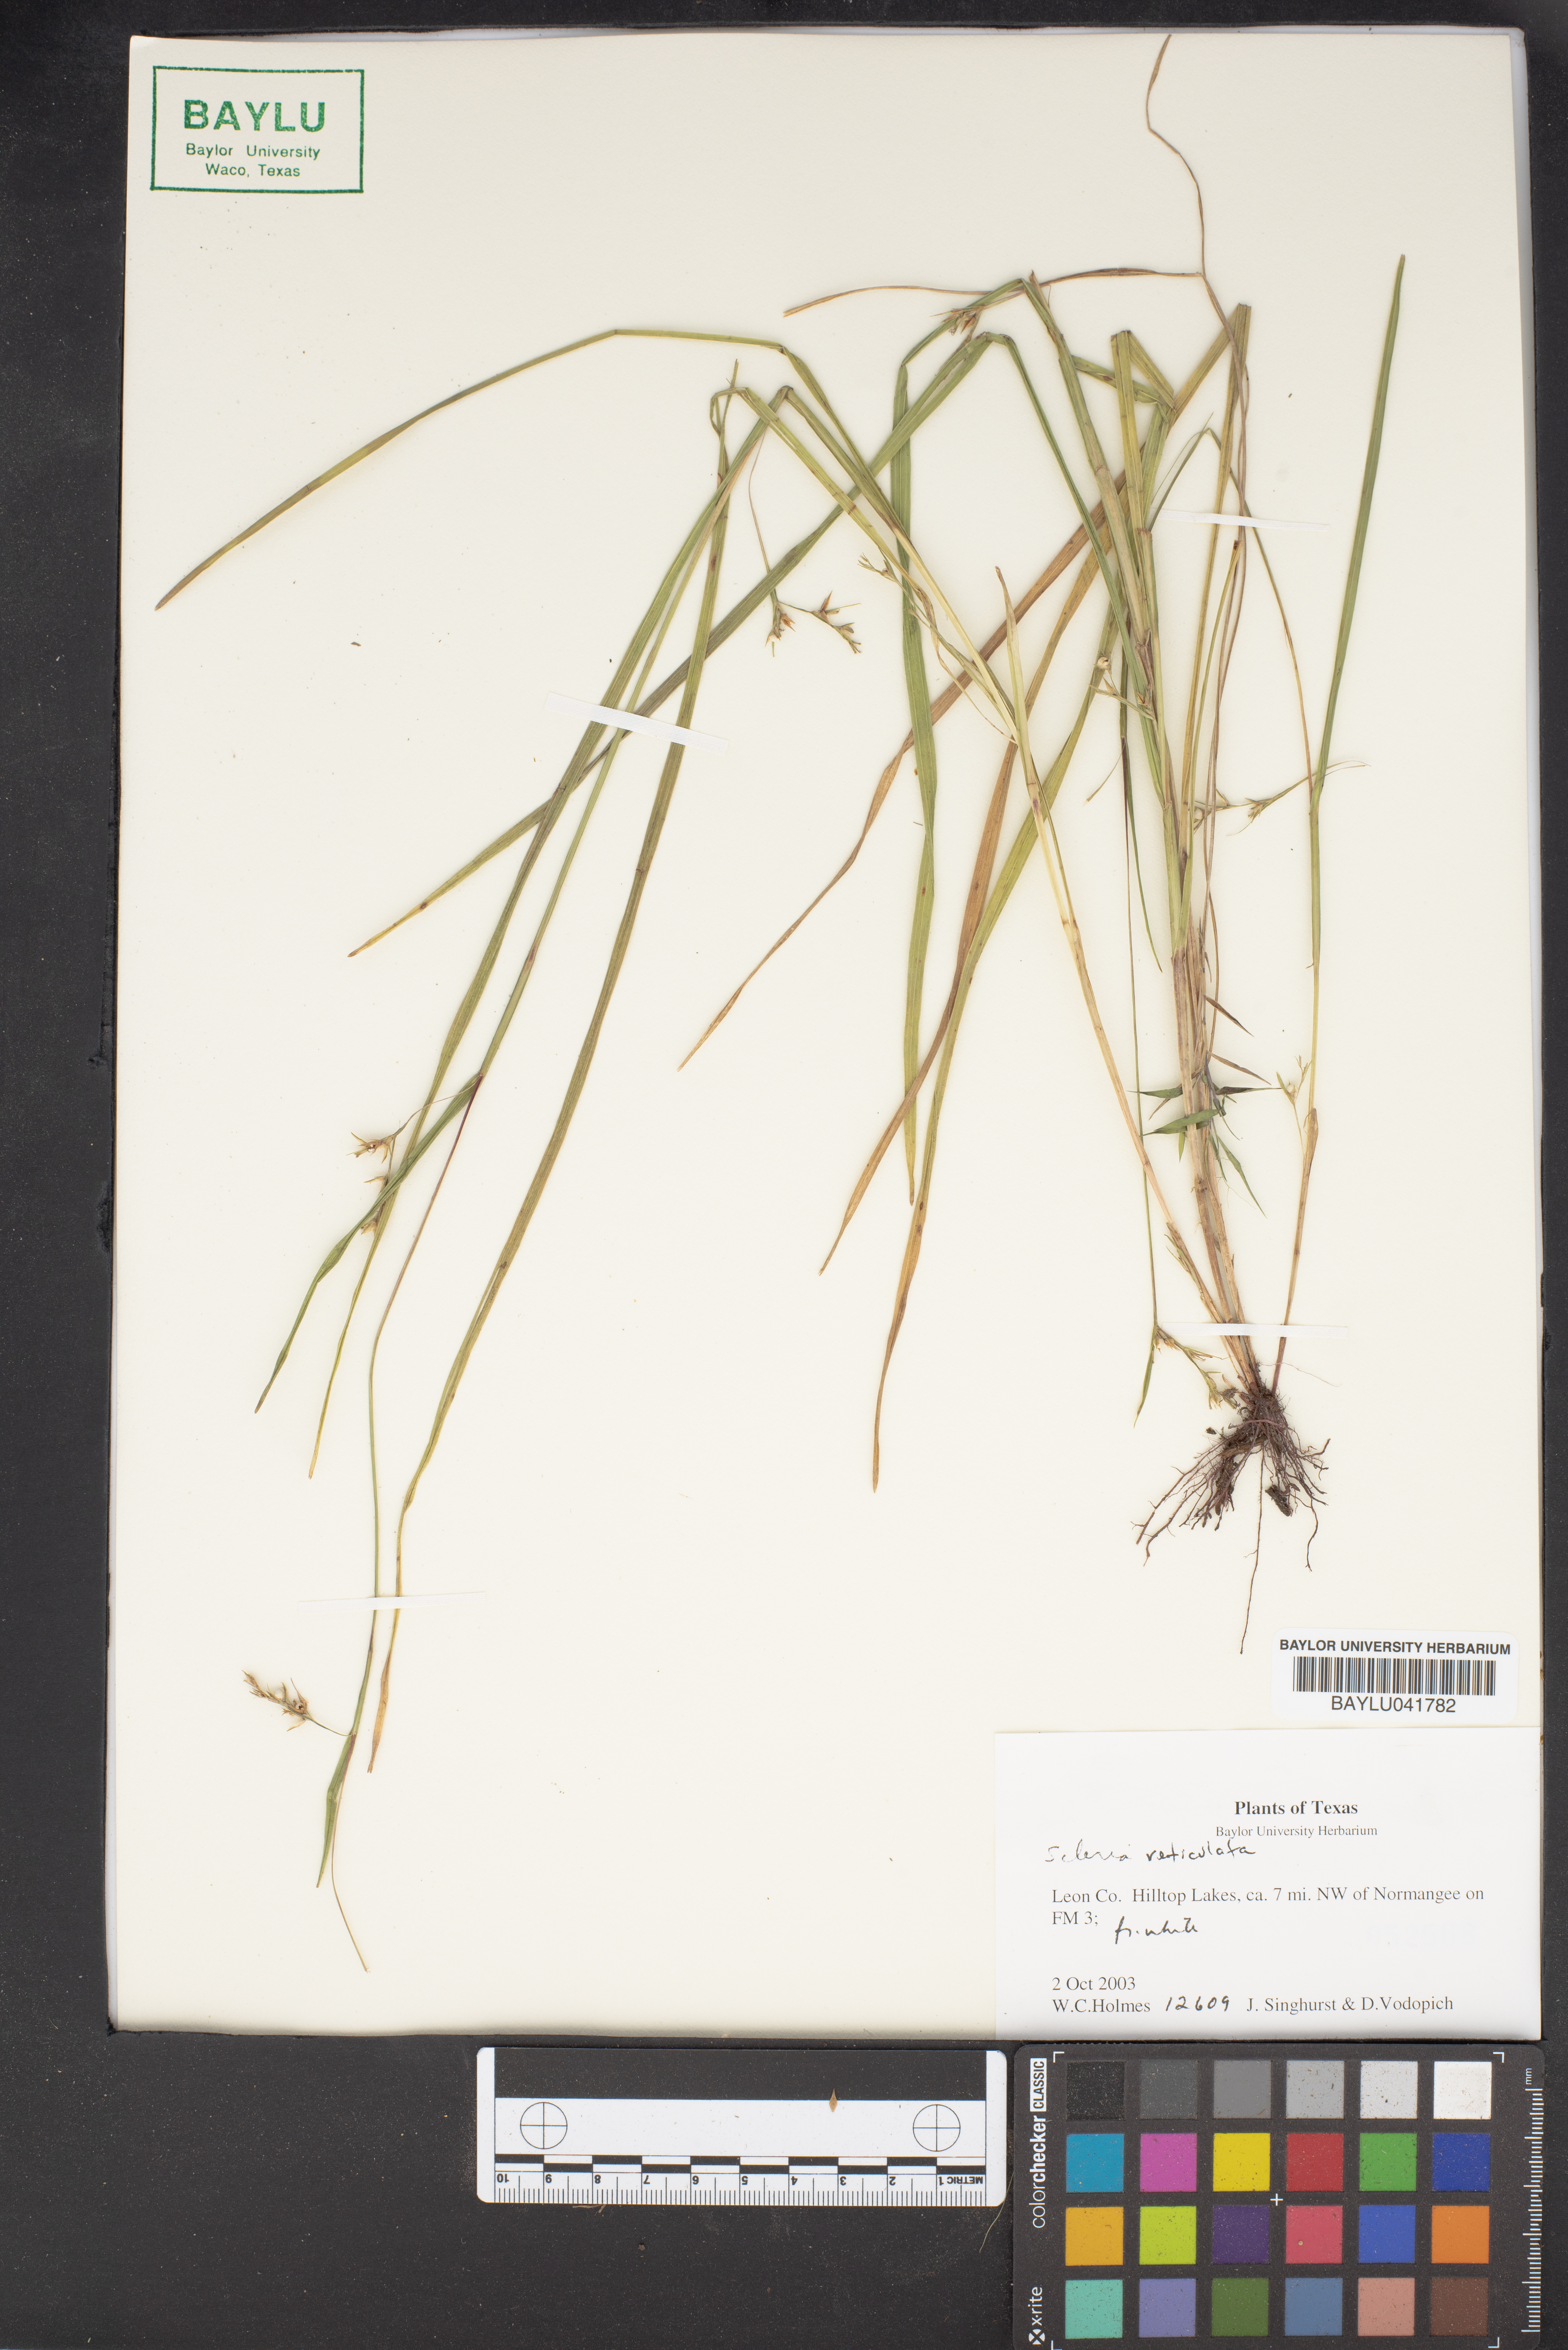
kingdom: Plantae
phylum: Tracheophyta
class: Magnoliopsida
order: Celastrales
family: Celastraceae
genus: Salacia
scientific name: Salacia
